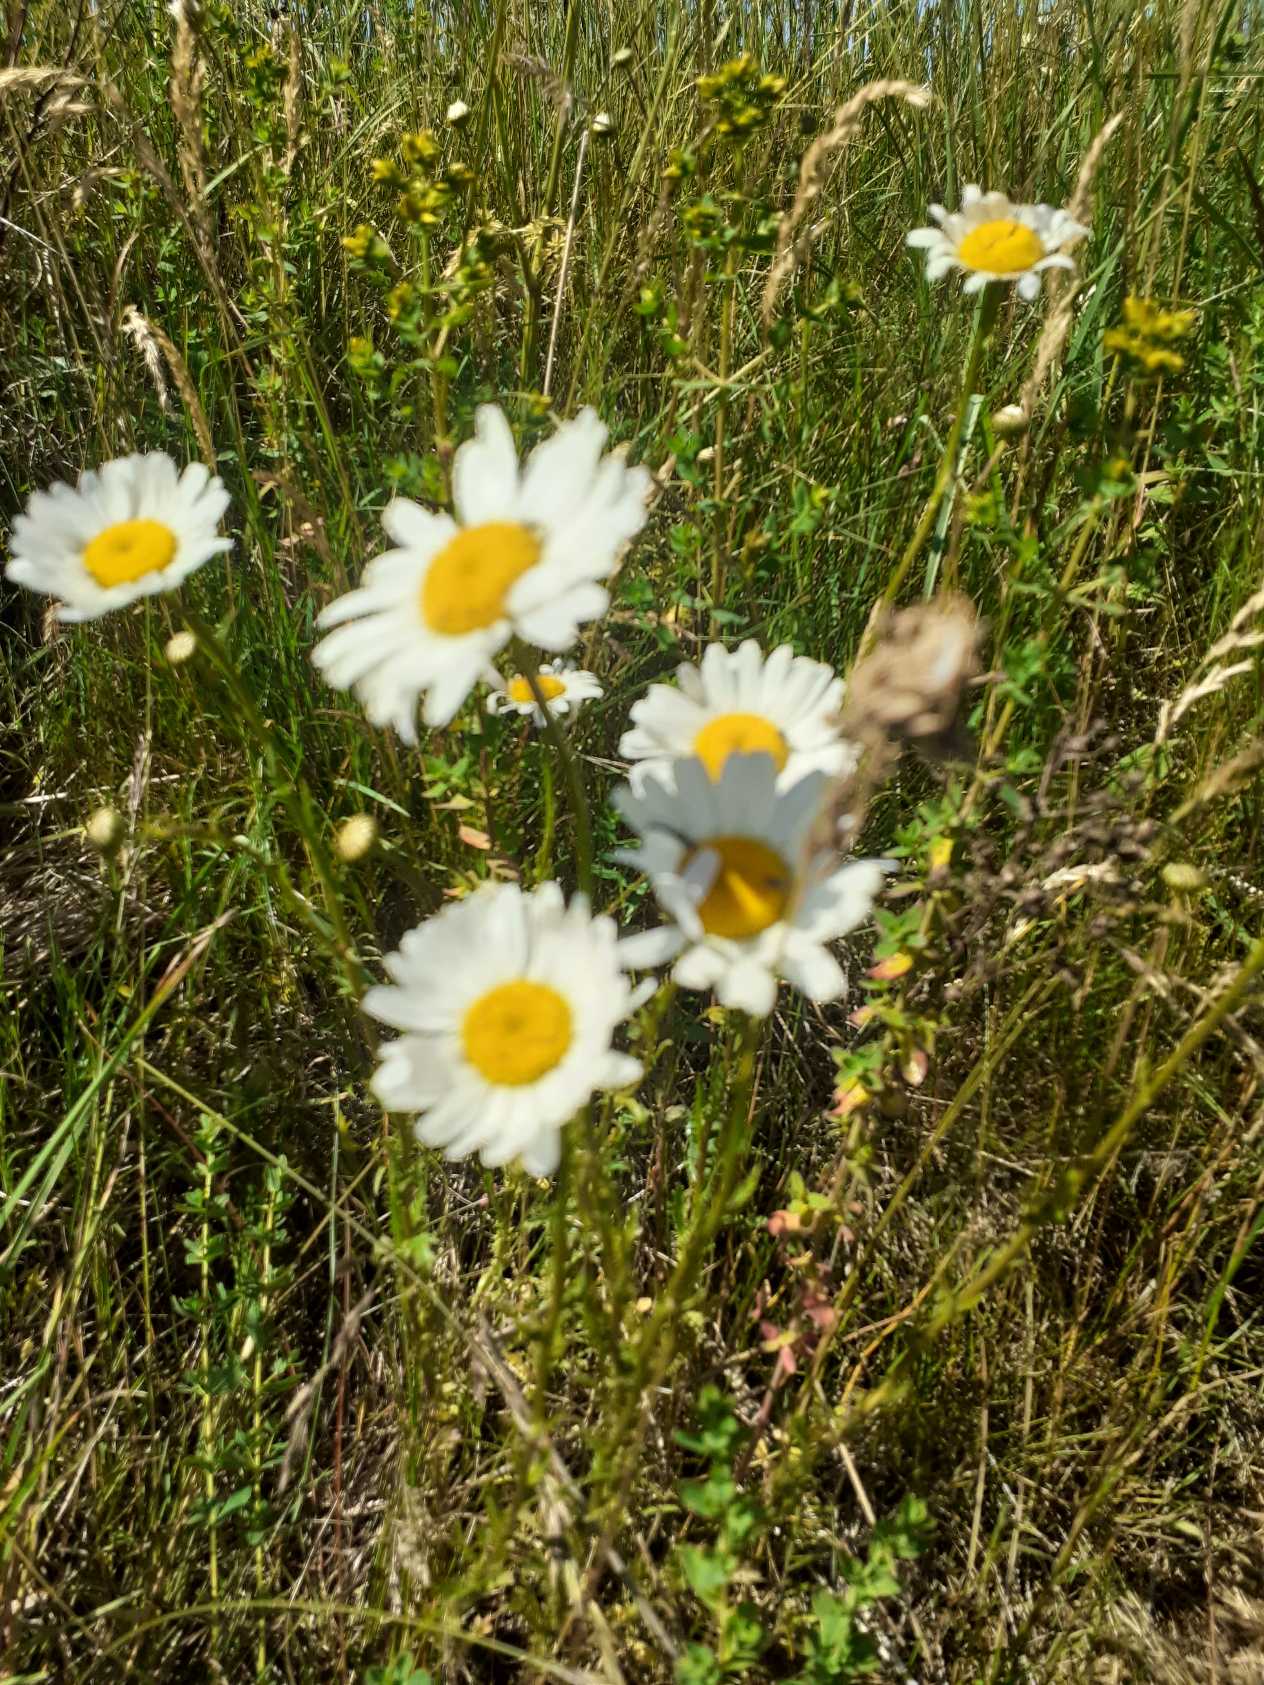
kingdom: Plantae
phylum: Tracheophyta
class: Magnoliopsida
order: Asterales
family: Asteraceae
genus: Leucanthemum
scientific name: Leucanthemum vulgare
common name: Hvid okseøje
